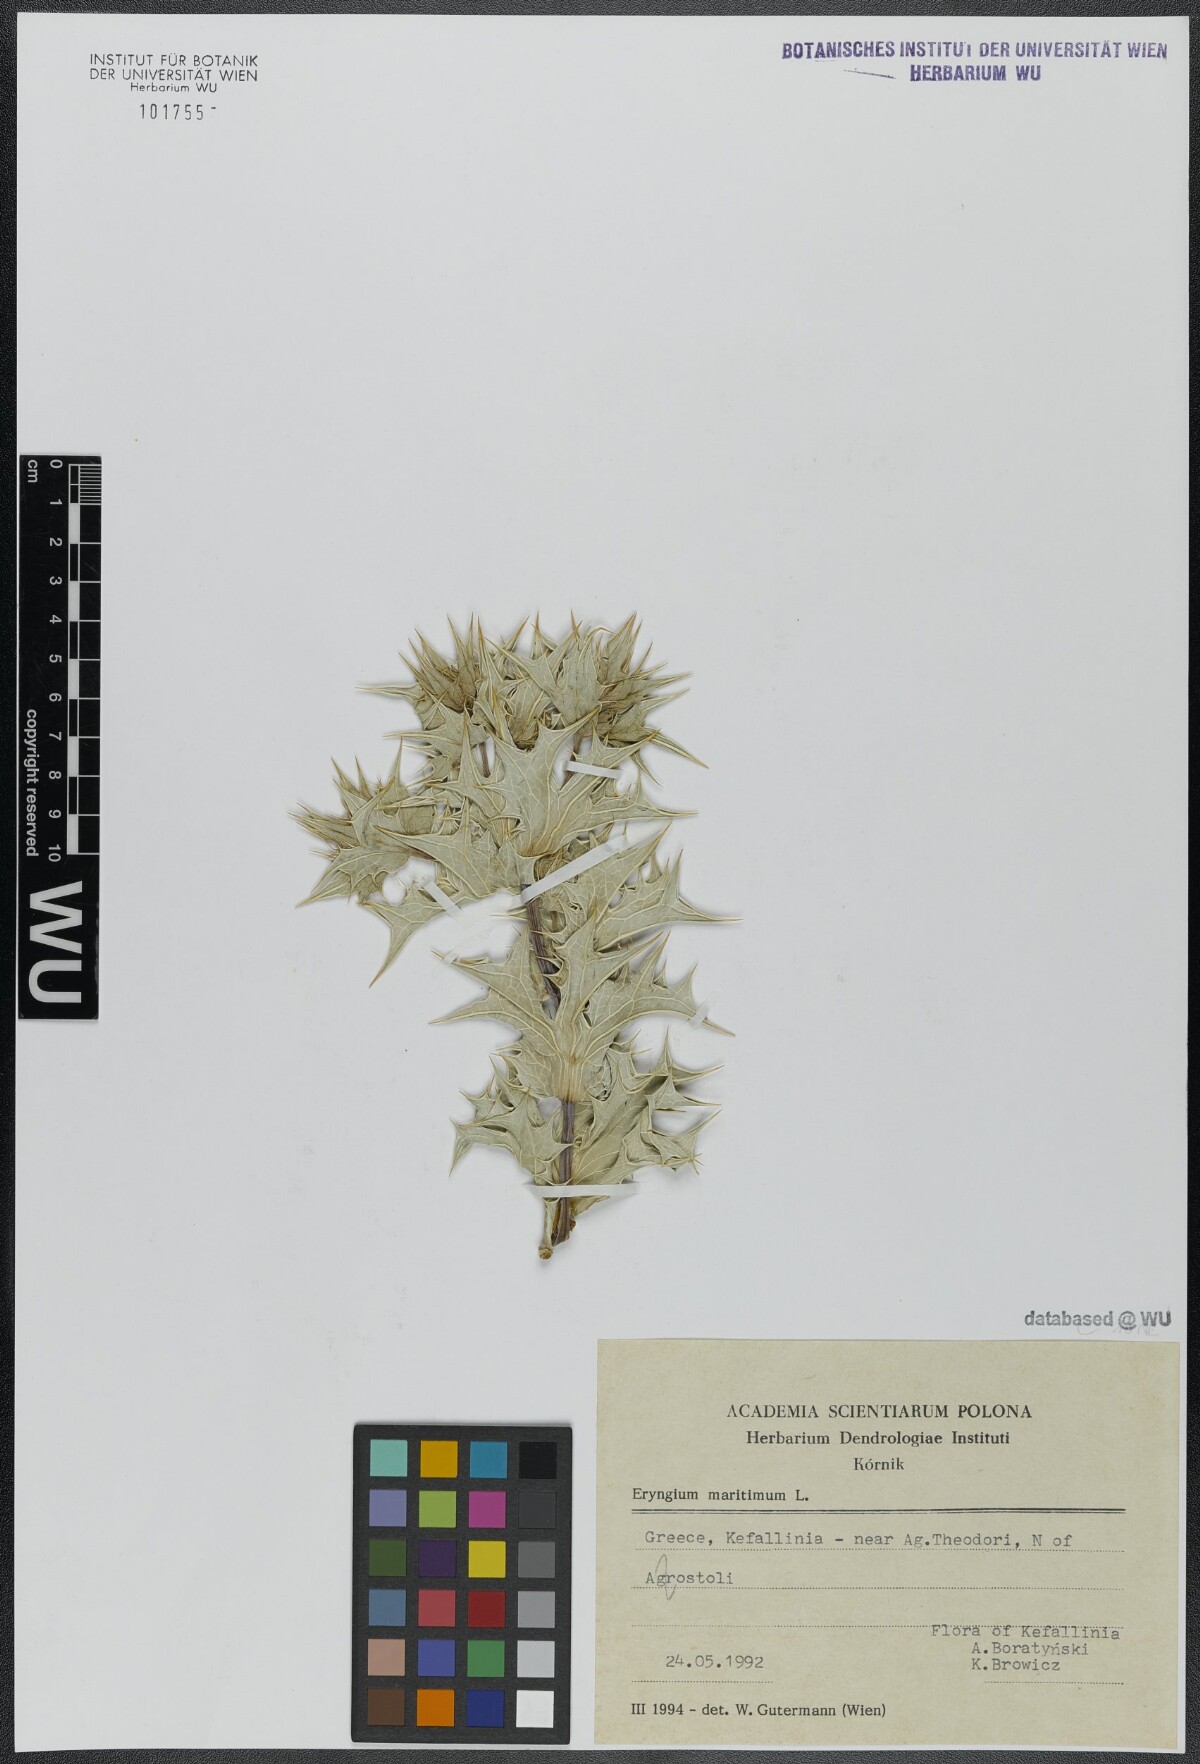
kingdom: Plantae
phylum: Tracheophyta
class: Magnoliopsida
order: Apiales
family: Apiaceae
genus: Eryngium
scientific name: Eryngium maritimum
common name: Sea-holly
